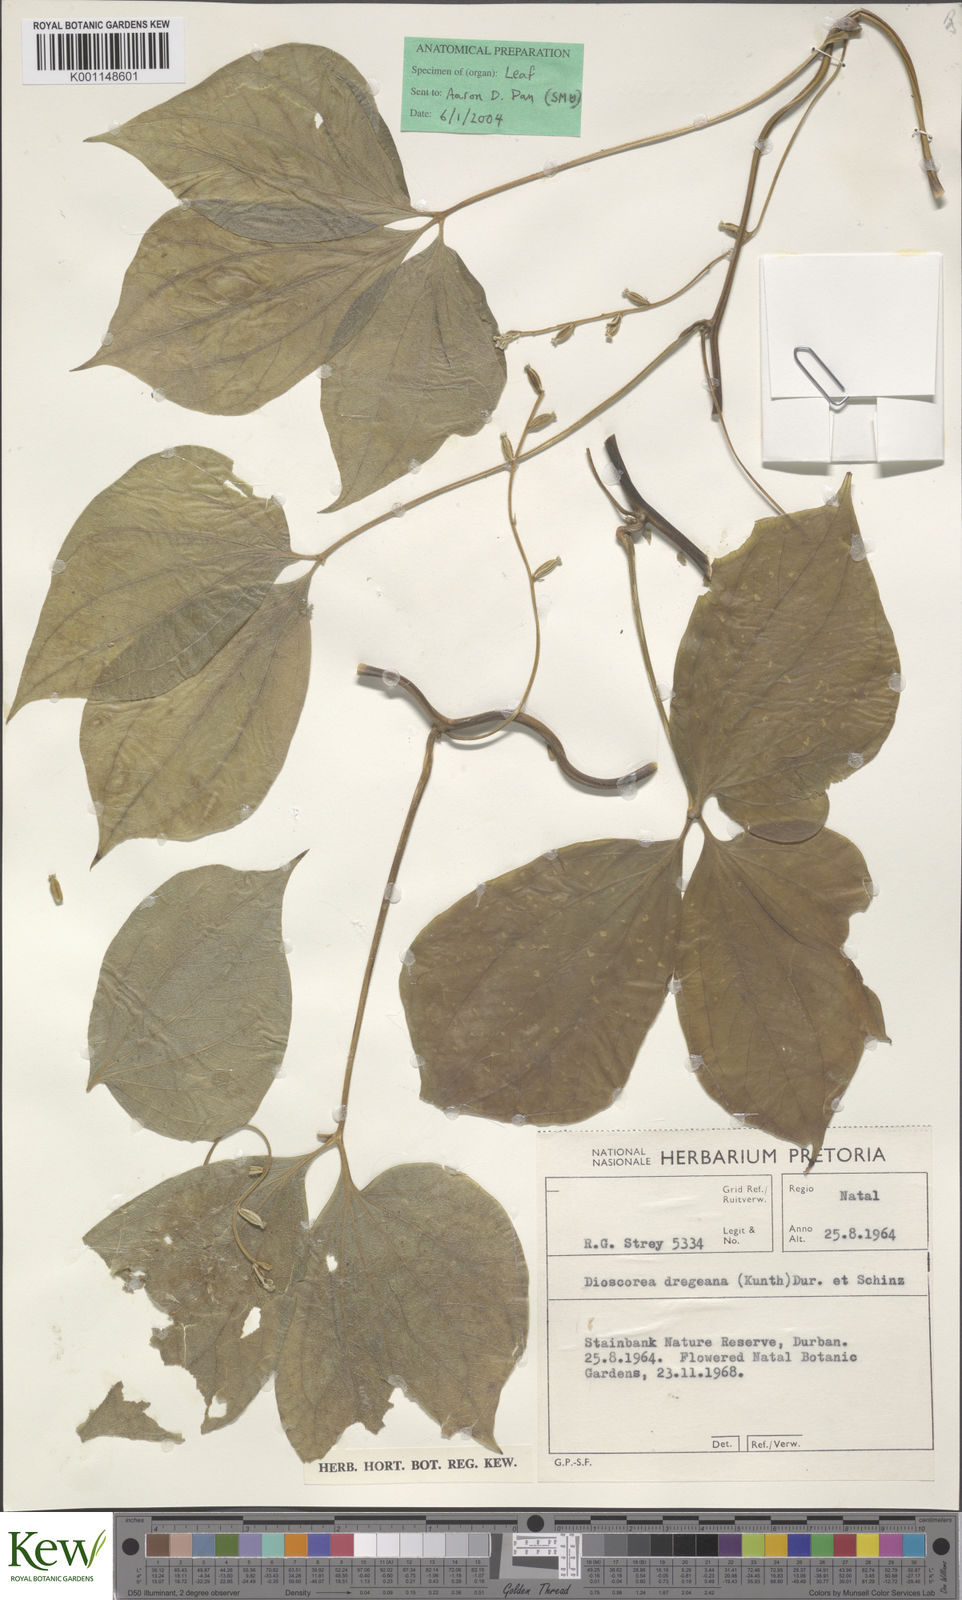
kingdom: Plantae
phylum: Tracheophyta
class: Liliopsida
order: Dioscoreales
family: Dioscoreaceae
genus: Dioscorea
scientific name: Dioscorea dregeana
